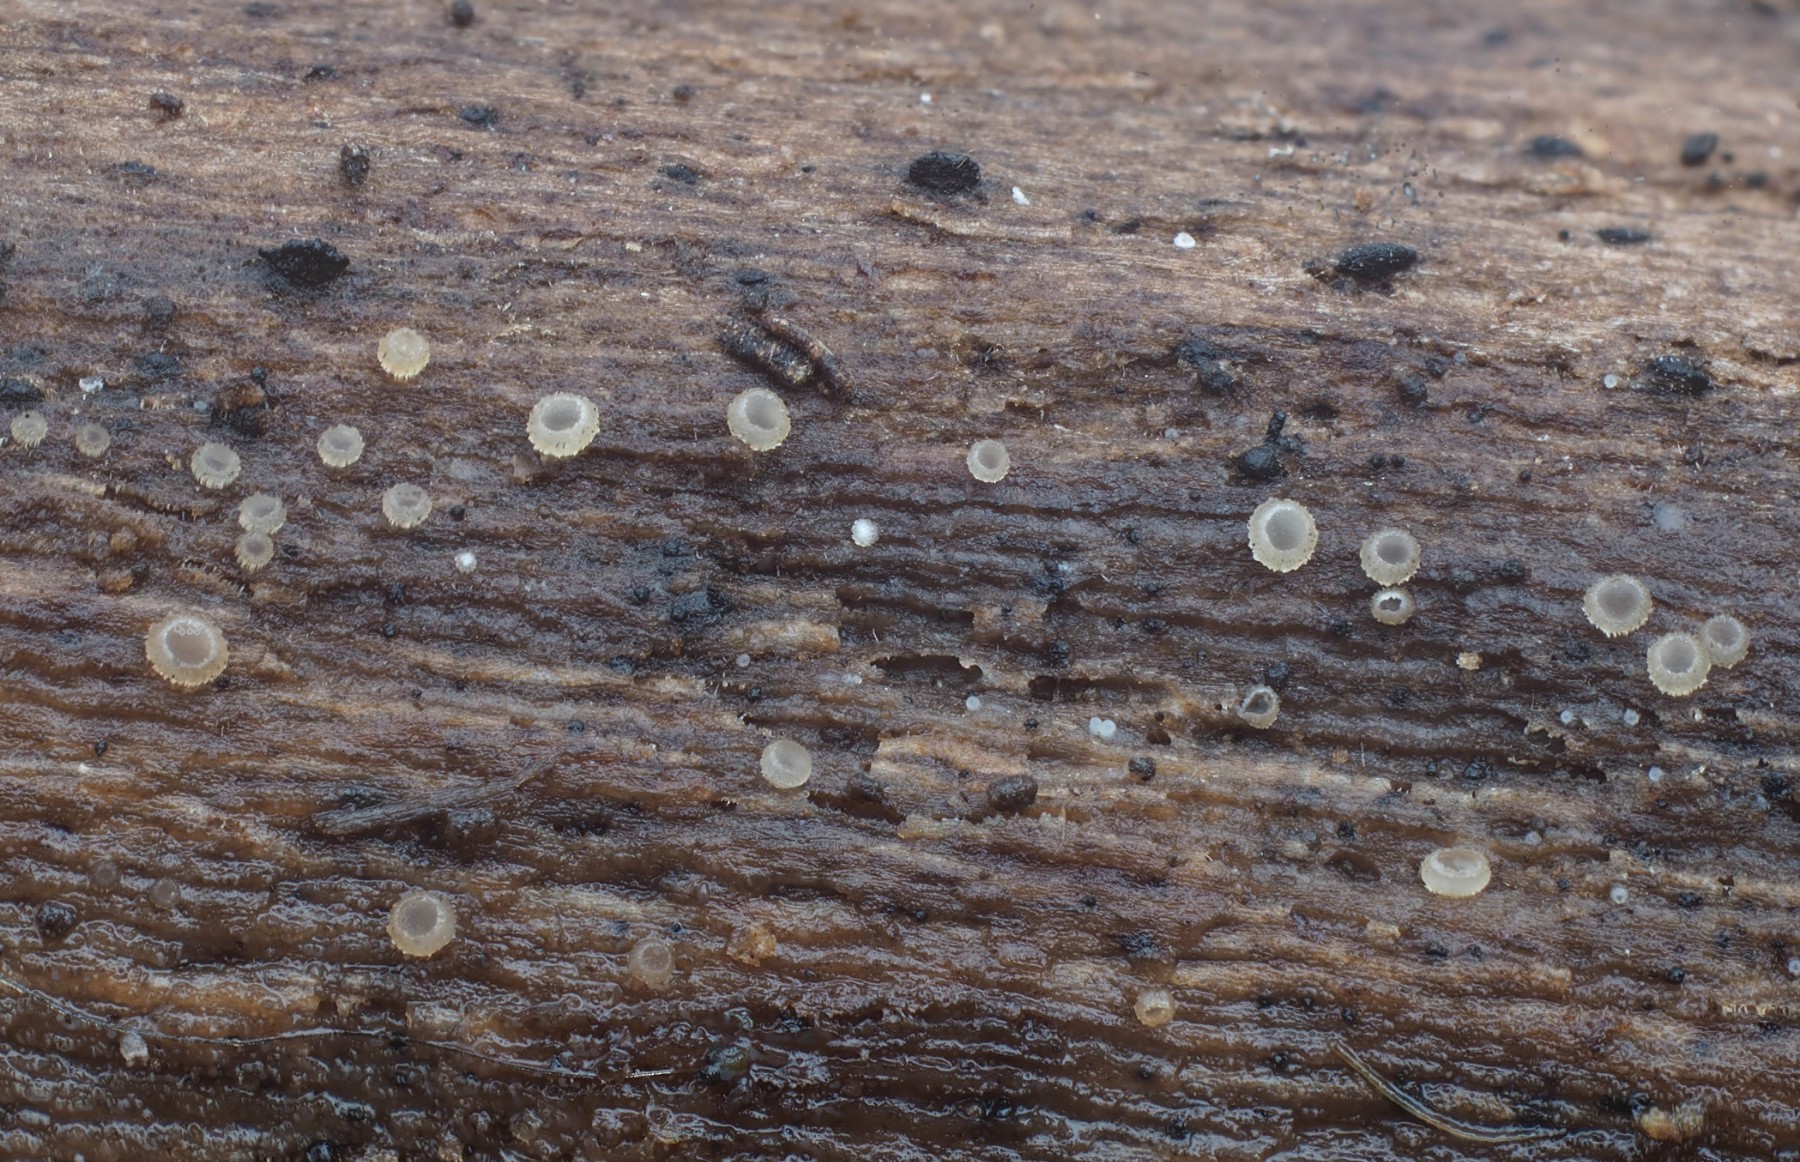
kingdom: Fungi
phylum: Ascomycota
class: Leotiomycetes
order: Helotiales
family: Hyaloscyphaceae
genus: Hyalopeziza
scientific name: Hyalopeziza millepunctata
